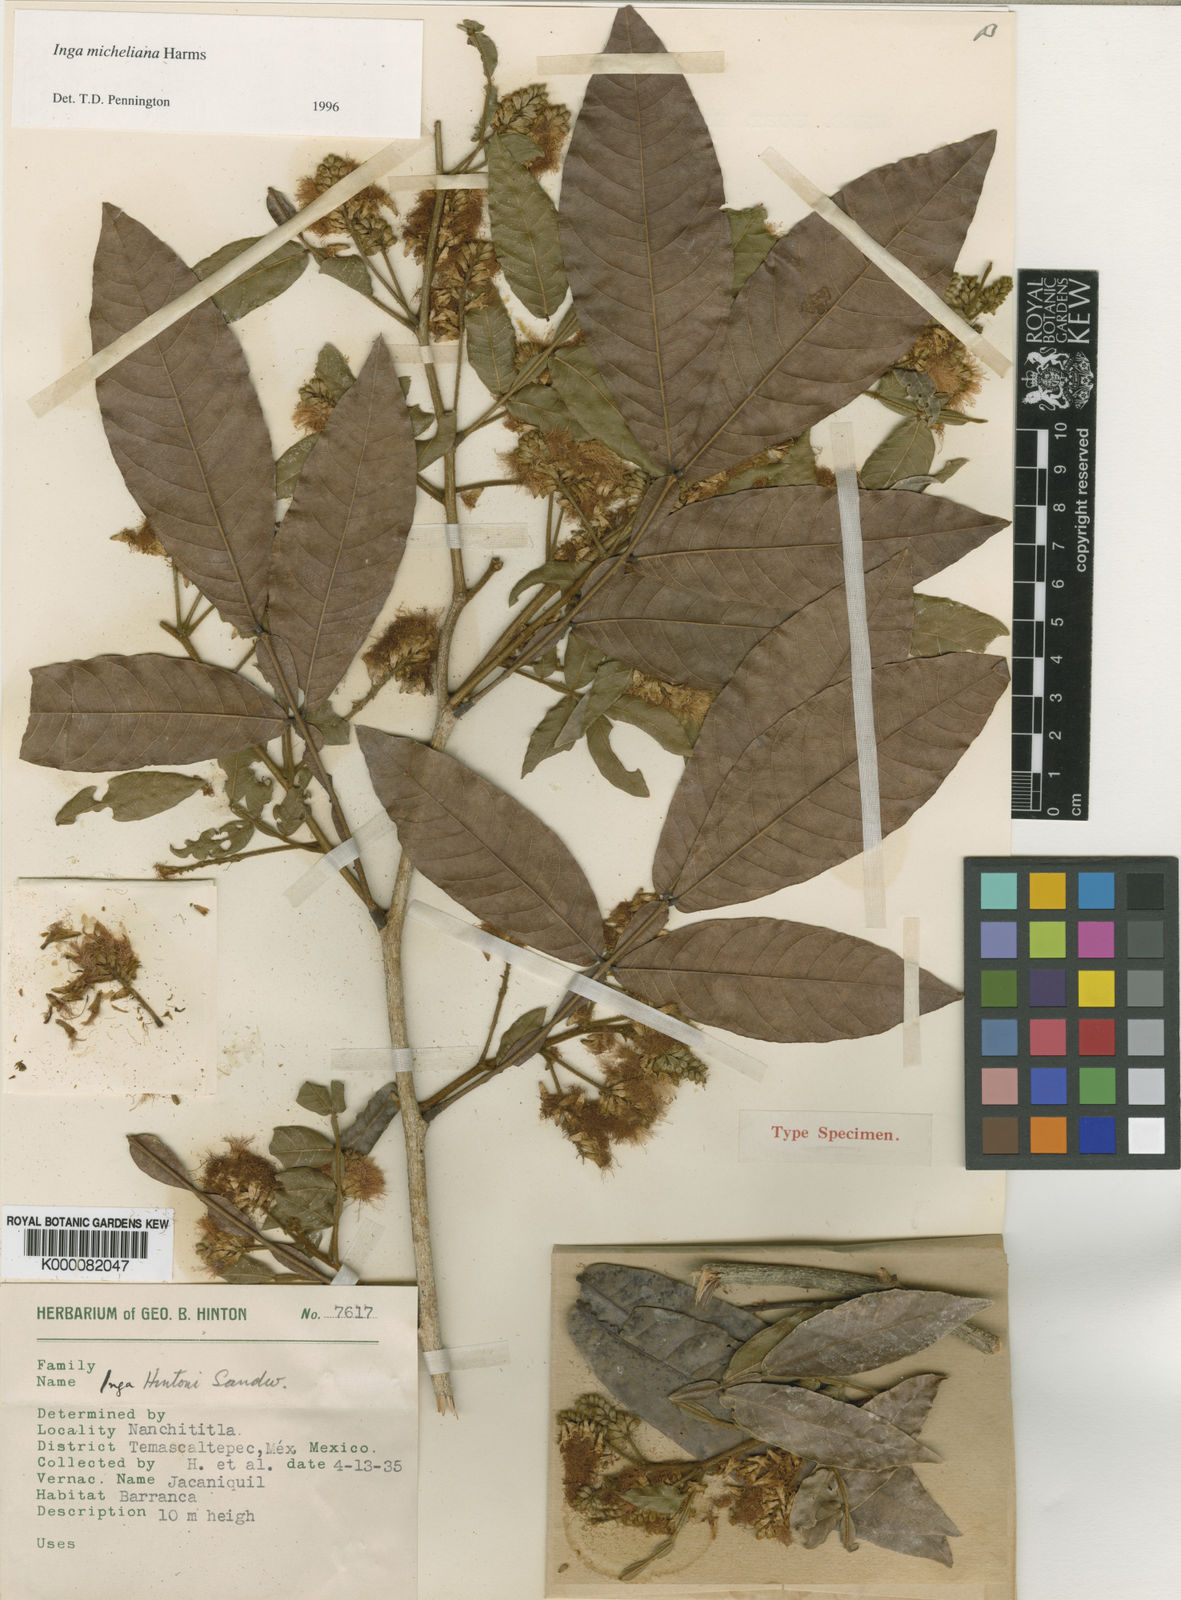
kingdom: Plantae
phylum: Tracheophyta
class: Magnoliopsida
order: Fabales
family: Fabaceae
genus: Inga
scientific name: Inga flexuosa
